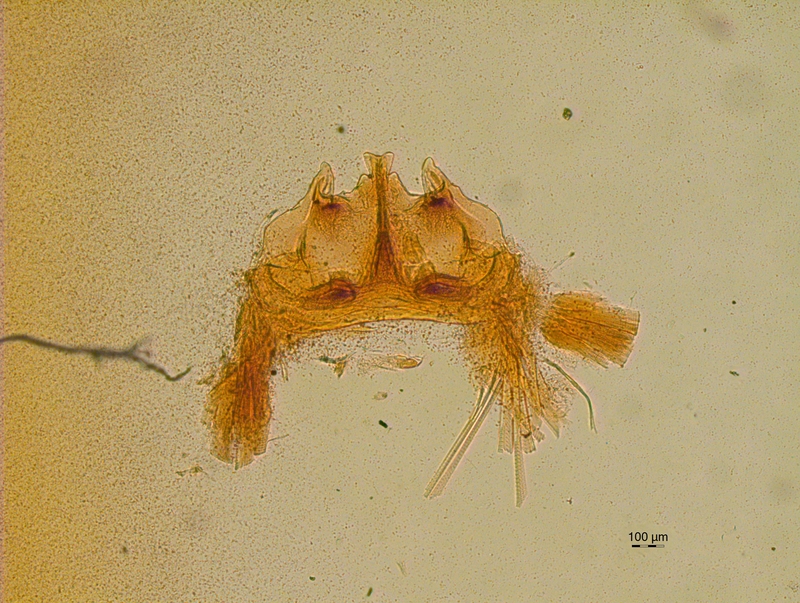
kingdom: Animalia
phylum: Arthropoda
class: Diplopoda
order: Chordeumatida
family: Craspedosomatidae
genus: Craspedosoma
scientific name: Craspedosoma rawlinsii
